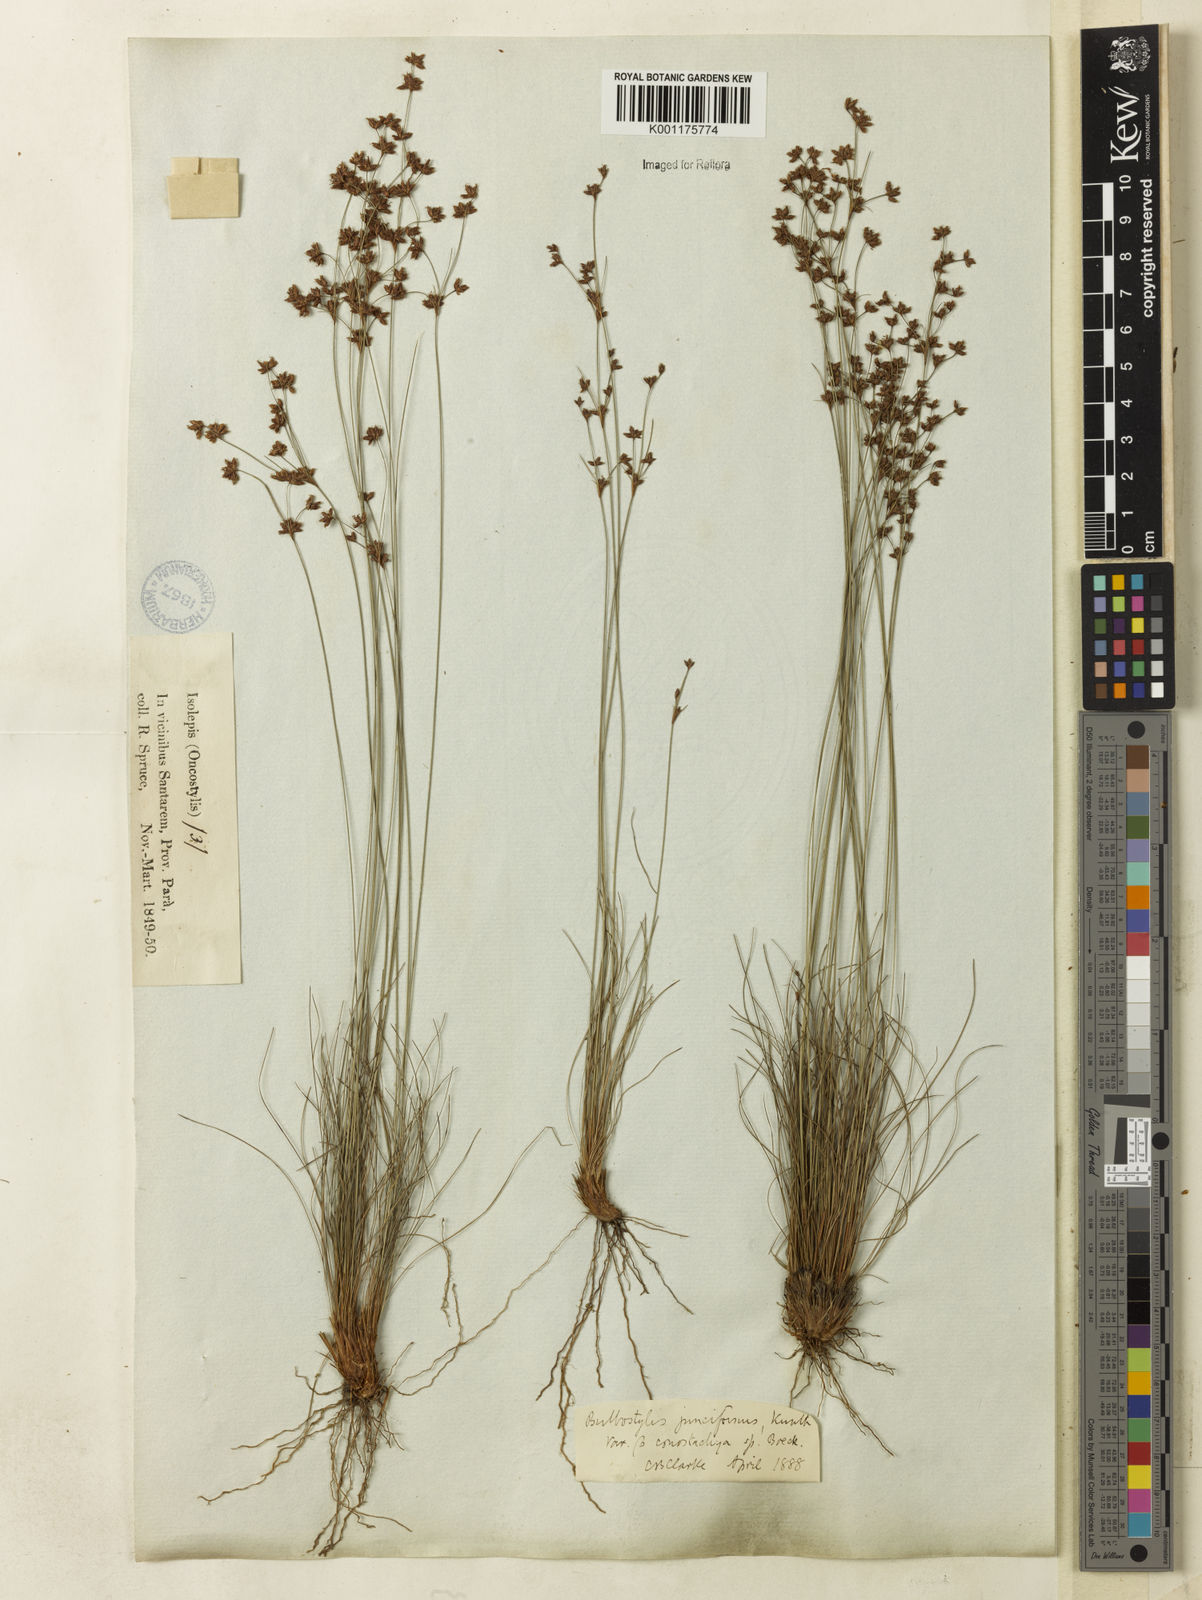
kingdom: Plantae
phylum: Tracheophyta
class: Liliopsida
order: Poales
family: Cyperaceae
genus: Bulbostylis
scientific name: Bulbostylis junciformis
